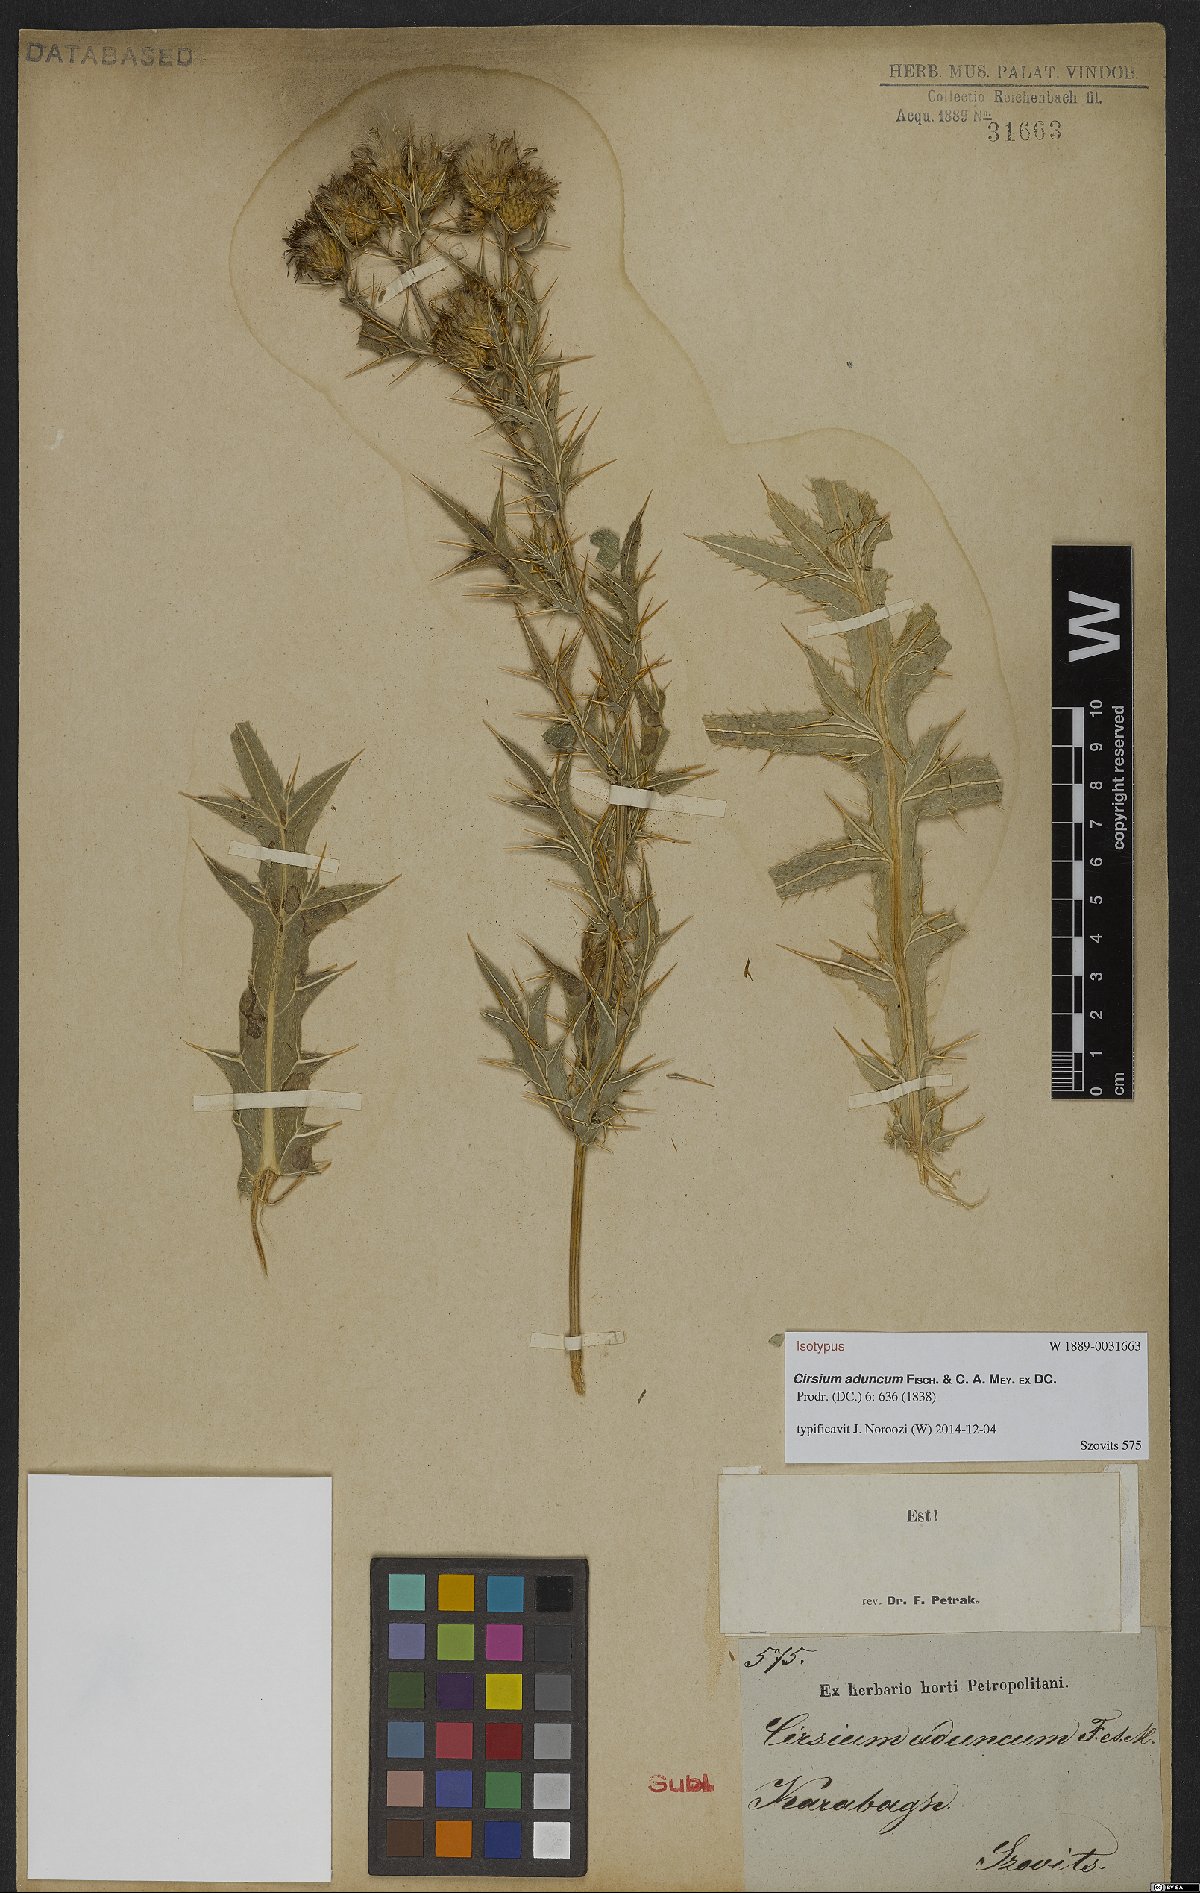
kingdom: Plantae
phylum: Tracheophyta
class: Magnoliopsida
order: Asterales
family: Asteraceae
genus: Lophiolepis
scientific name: Lophiolepis adunca
